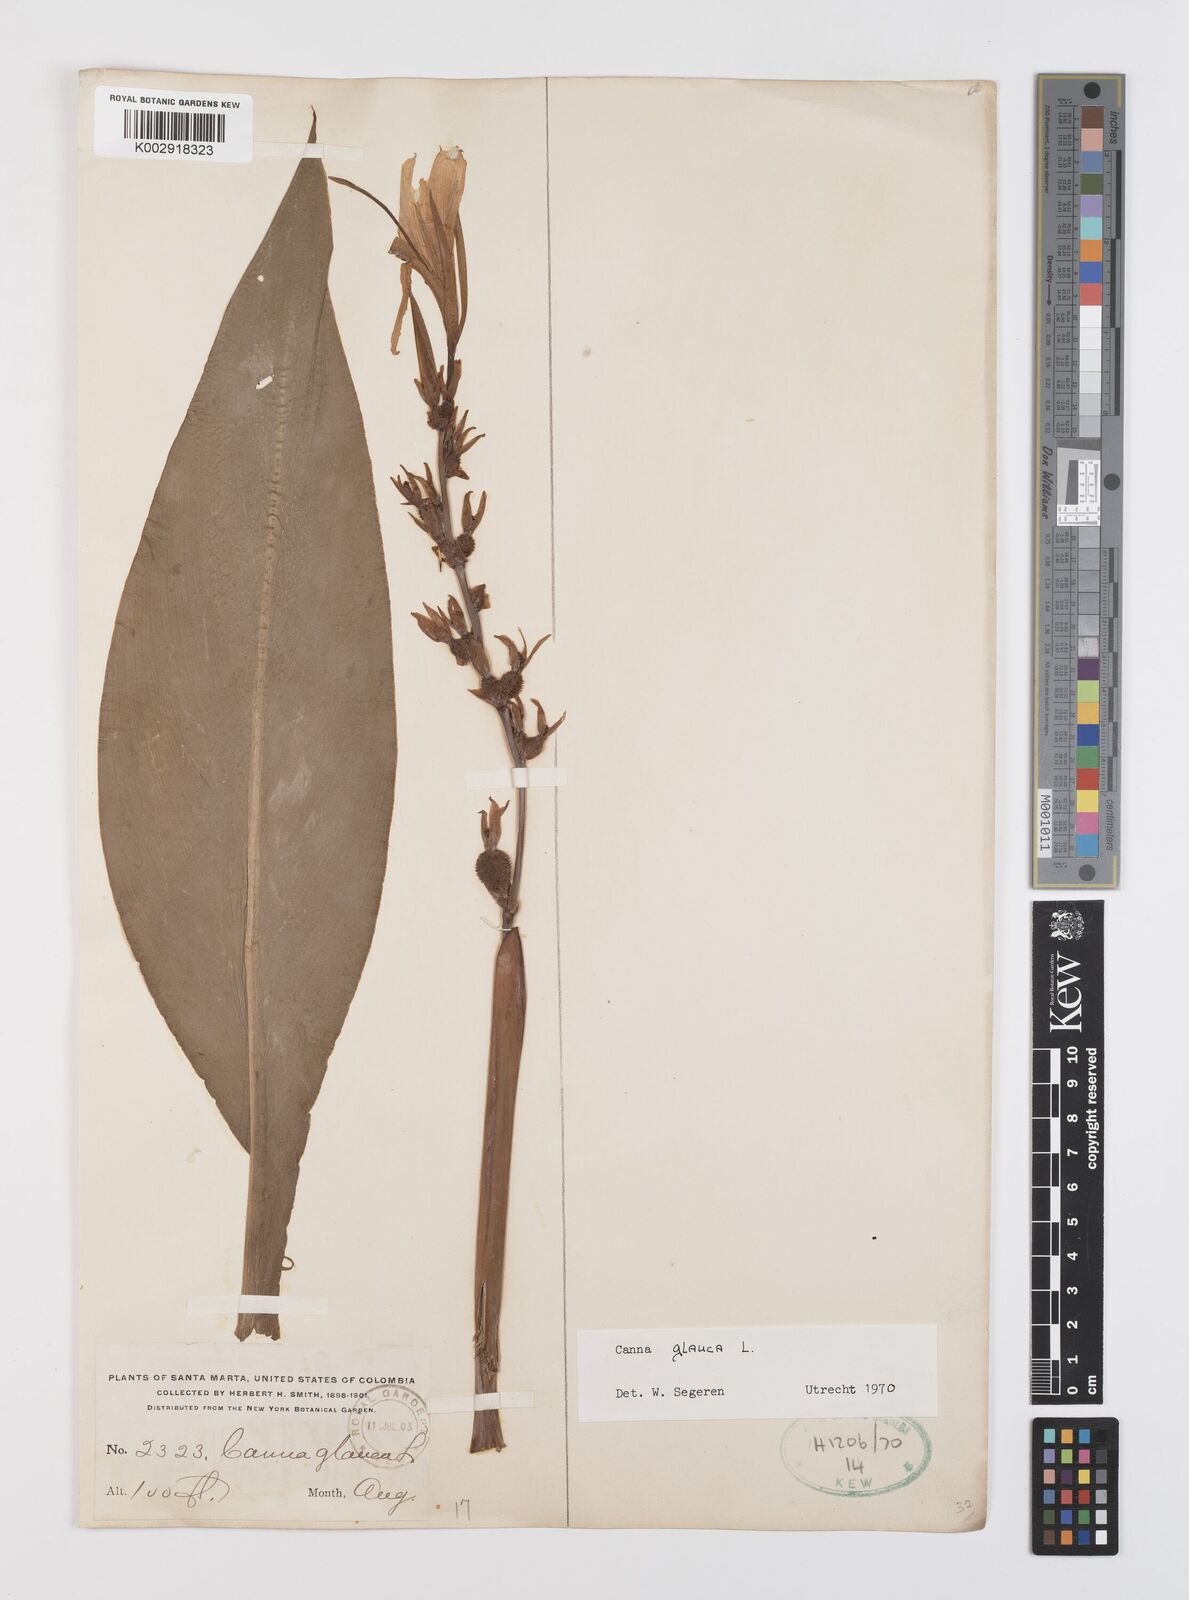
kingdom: Plantae
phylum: Tracheophyta
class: Liliopsida
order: Zingiberales
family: Cannaceae
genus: Canna
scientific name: Canna glauca
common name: Louisiana canna
